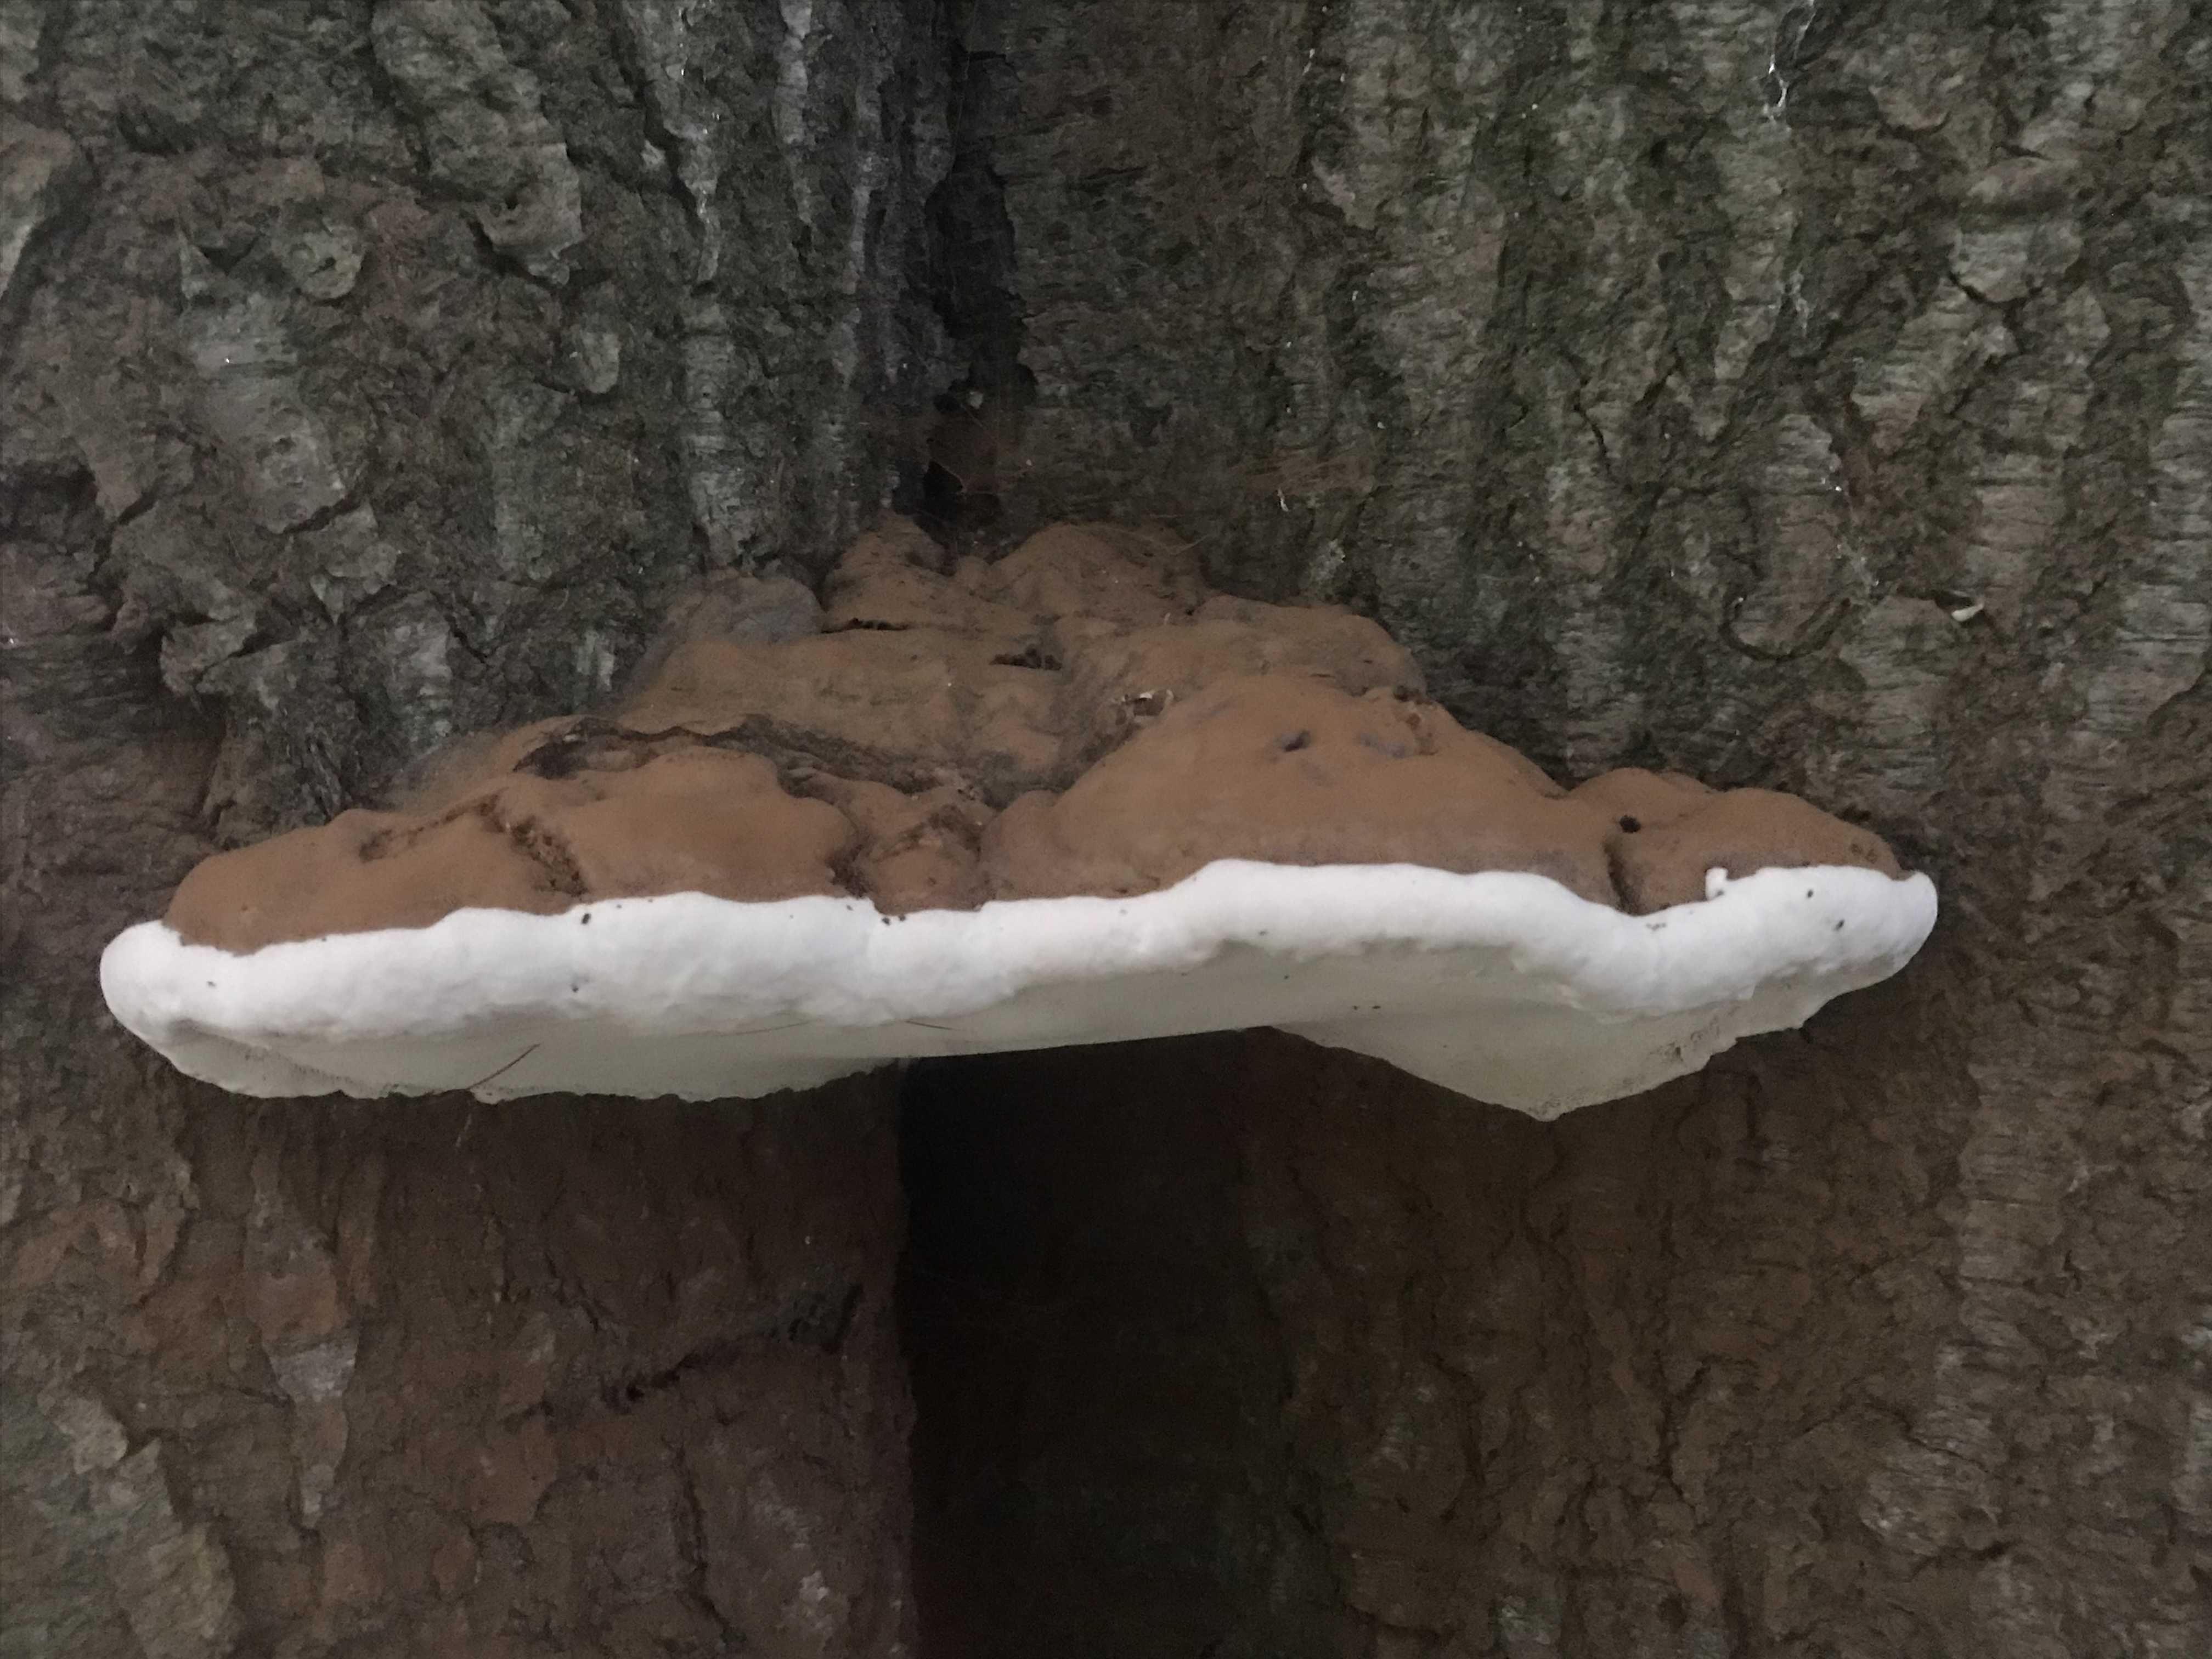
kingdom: Fungi
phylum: Basidiomycota
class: Agaricomycetes
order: Polyporales
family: Polyporaceae
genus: Ganoderma
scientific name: Ganoderma
